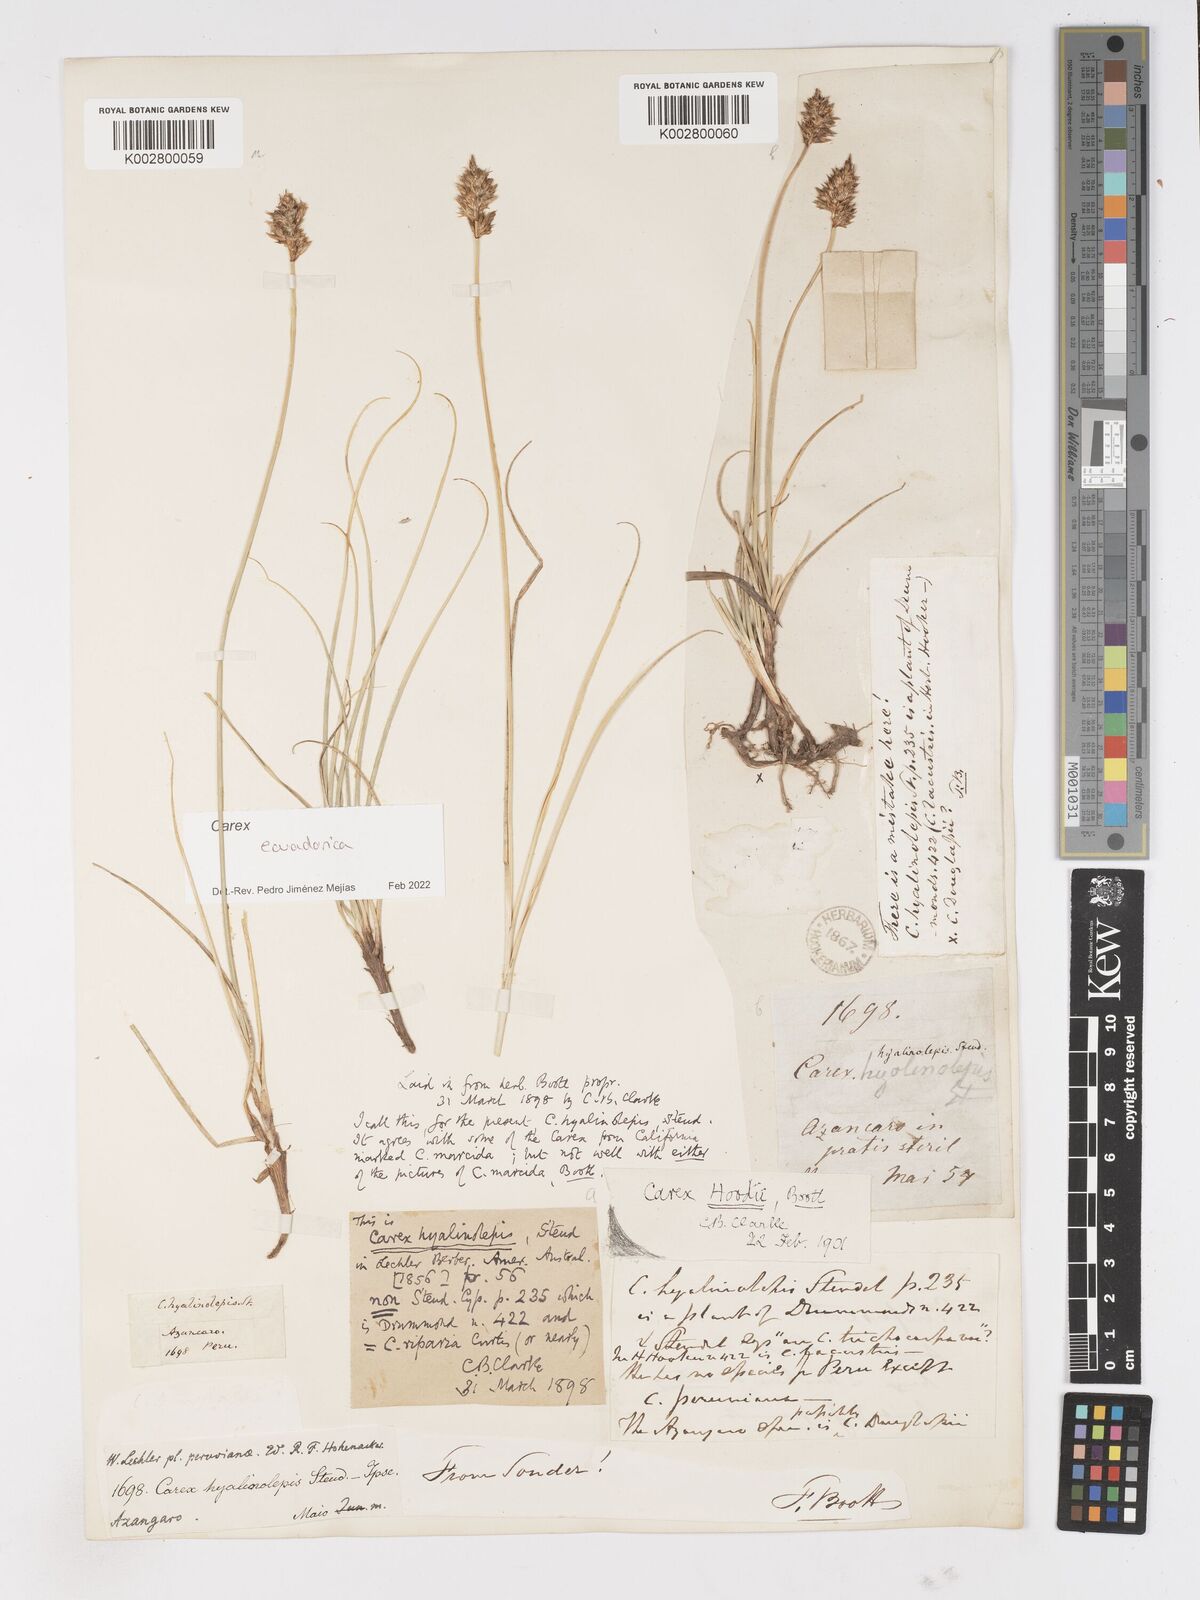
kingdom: Plantae
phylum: Tracheophyta
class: Liliopsida
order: Poales
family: Cyperaceae
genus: Carex
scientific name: Carex ecuadorica
